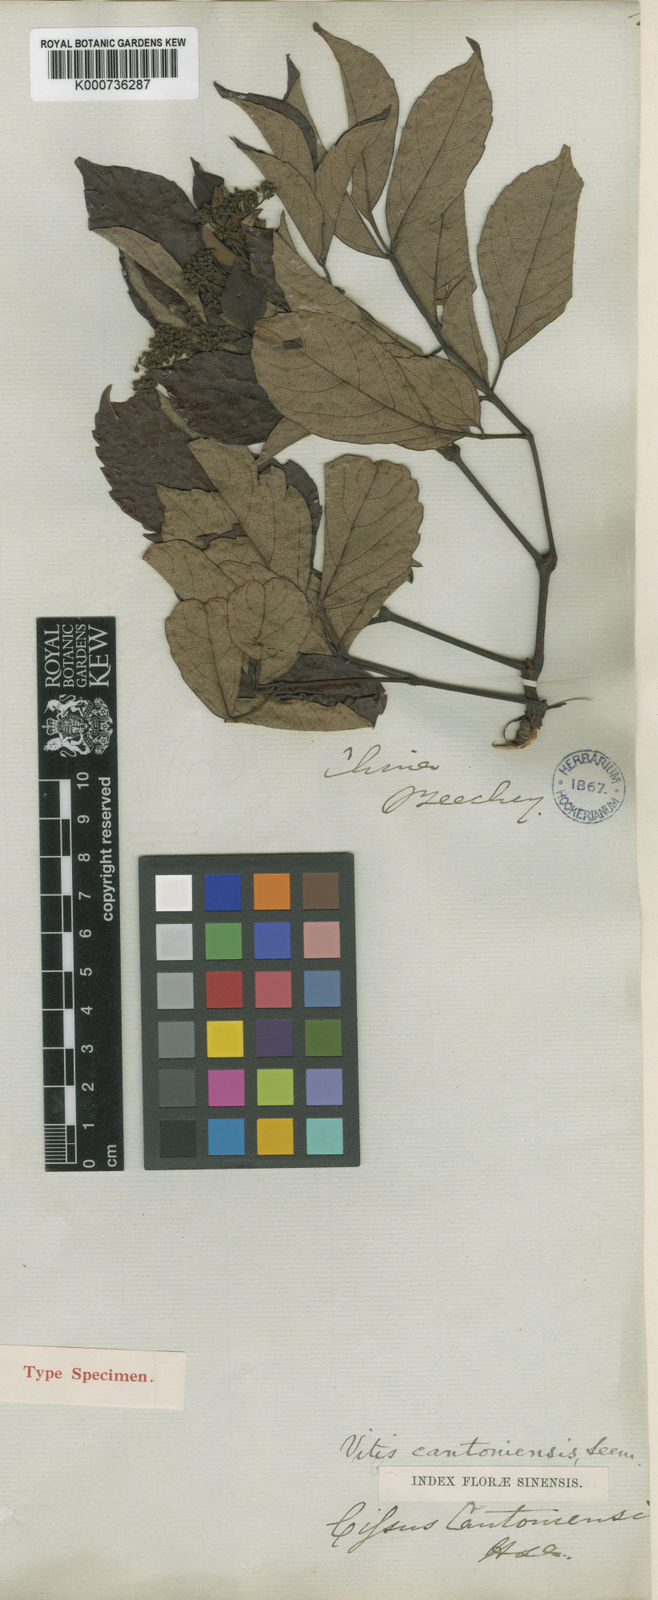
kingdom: Plantae
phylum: Tracheophyta
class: Magnoliopsida
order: Vitales
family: Vitaceae
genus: Nekemias
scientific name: Nekemias cantoniensis
